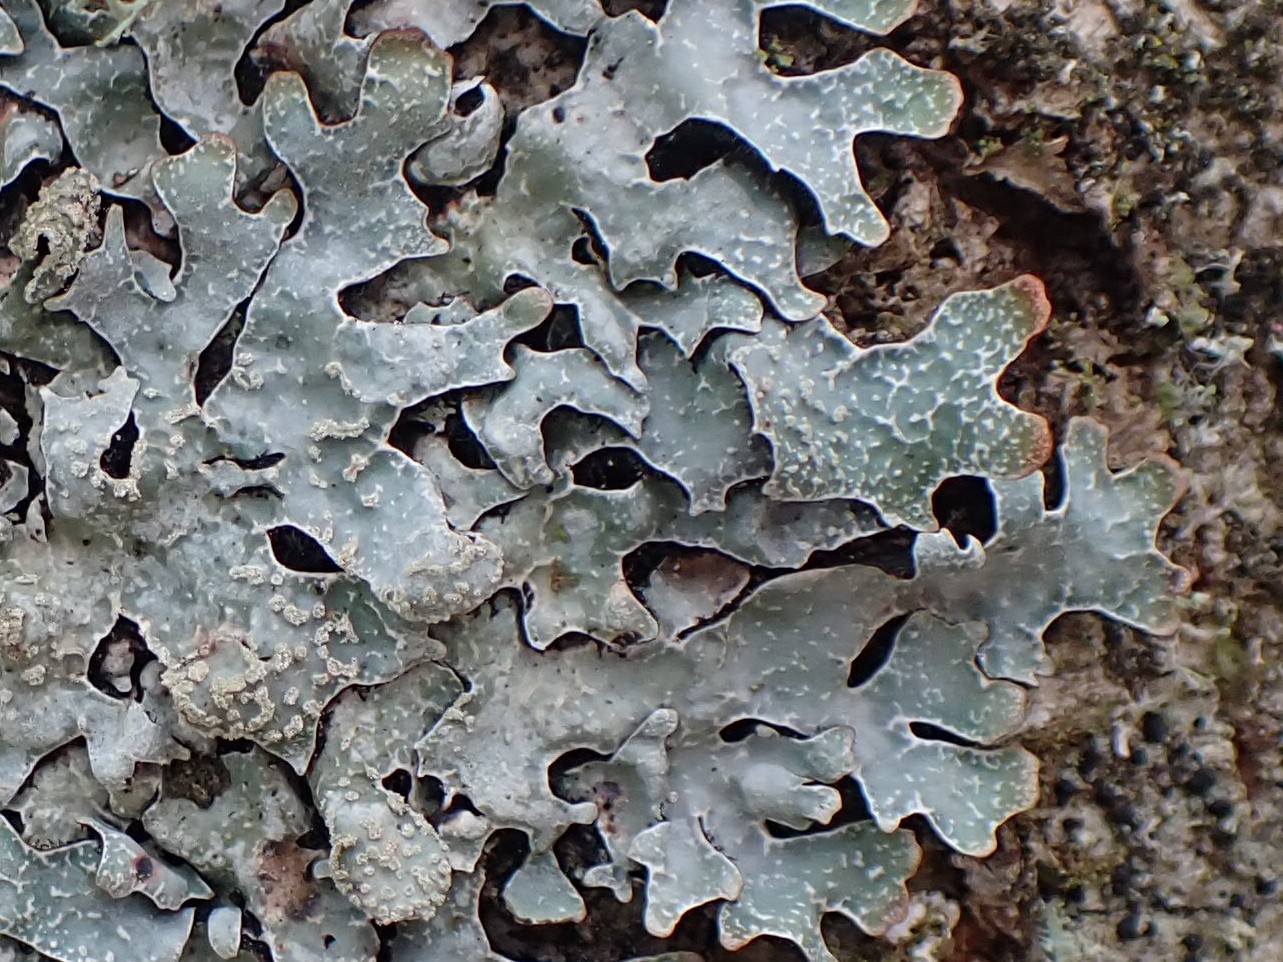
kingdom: Fungi
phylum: Ascomycota
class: Lecanoromycetes
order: Lecanorales
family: Parmeliaceae
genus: Parmelia
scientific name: Parmelia sulcata
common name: rynket skållav
